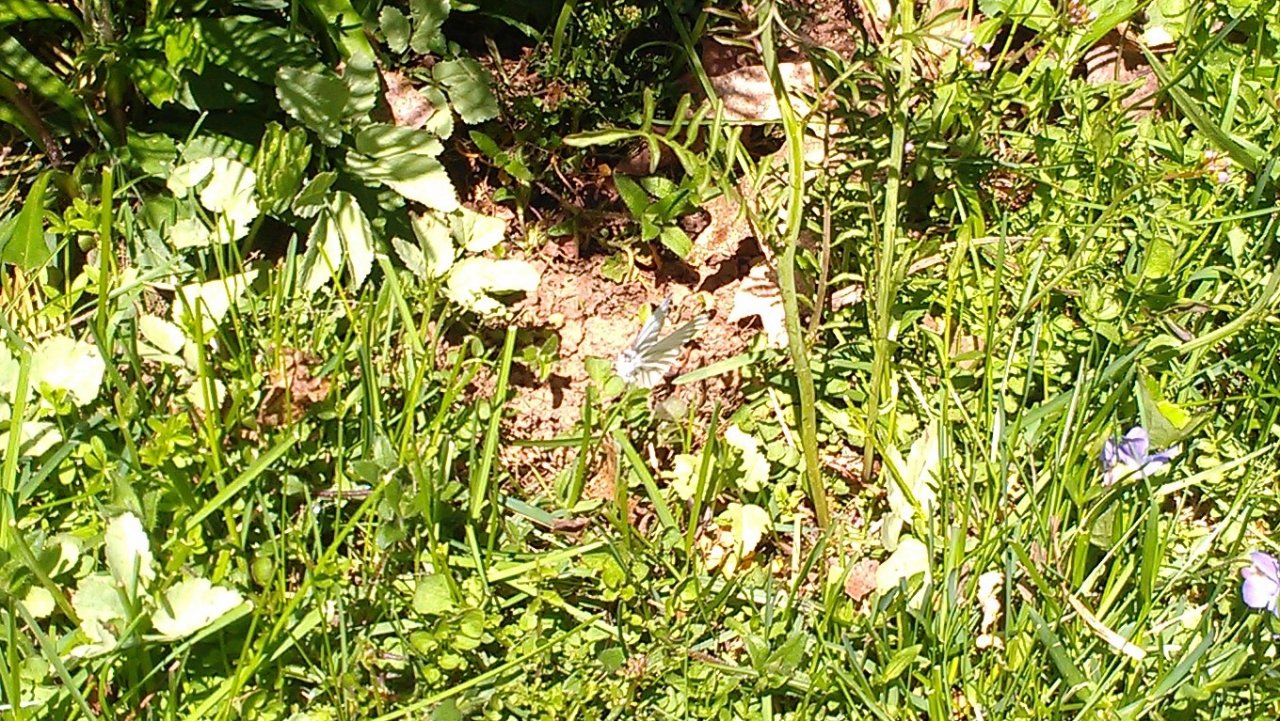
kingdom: Animalia
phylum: Arthropoda
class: Insecta
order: Lepidoptera
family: Pieridae
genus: Pieris
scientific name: Pieris oleracea
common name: Mustard White
